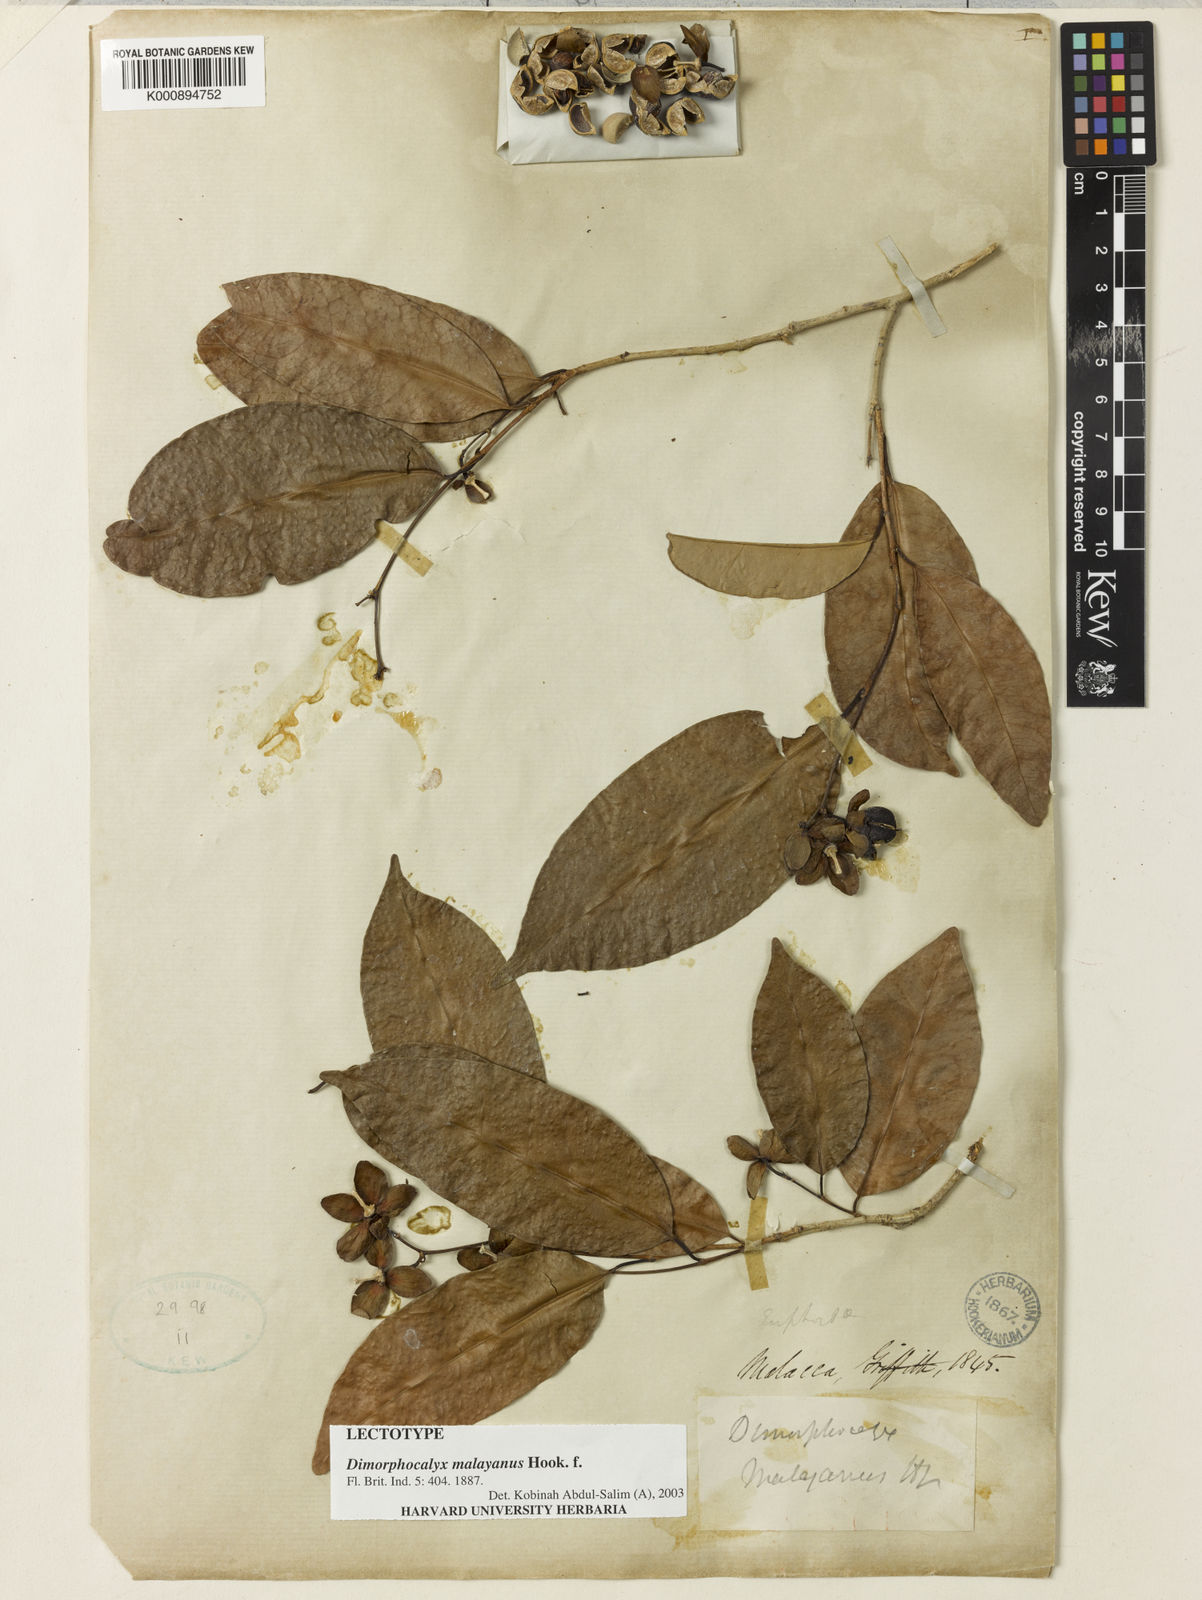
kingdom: Plantae
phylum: Tracheophyta
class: Magnoliopsida
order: Malpighiales
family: Euphorbiaceae
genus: Tritaxis
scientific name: Tritaxis malayana
